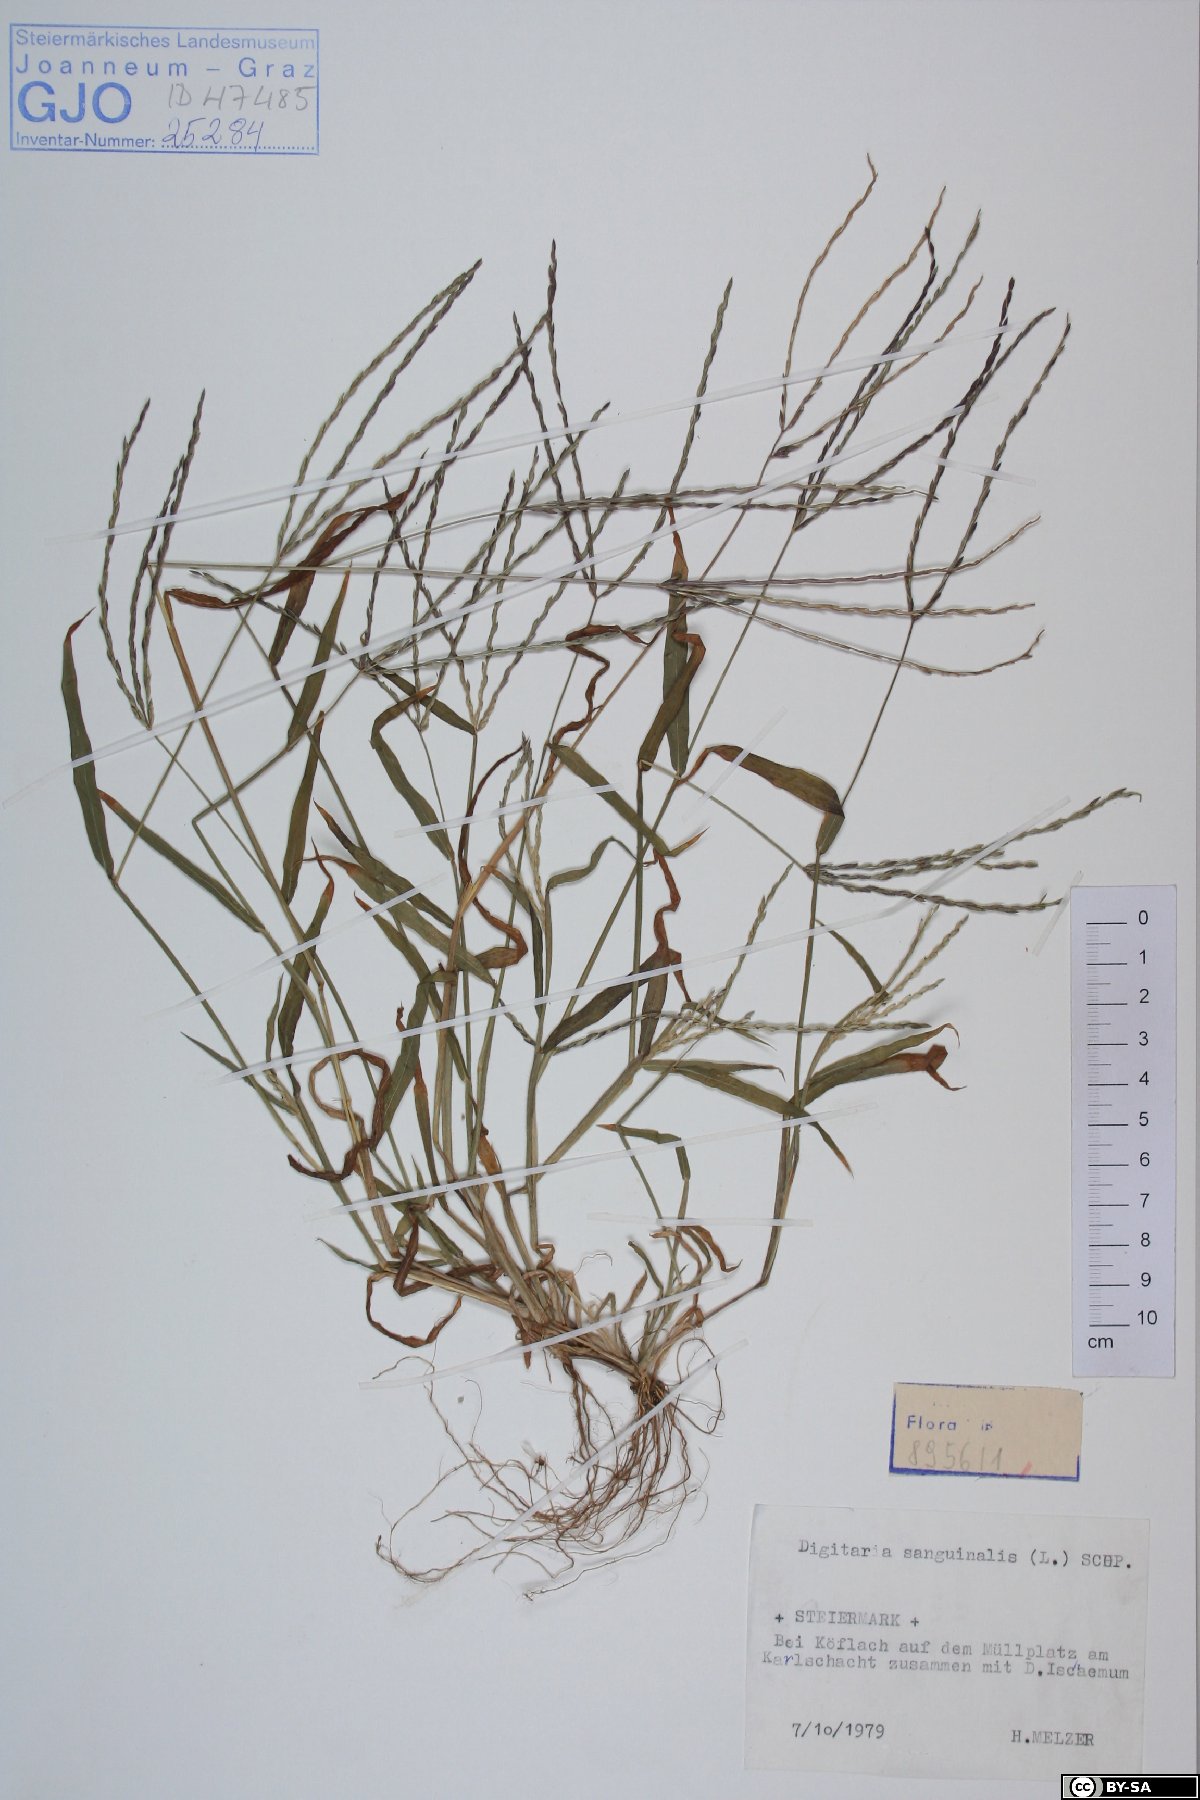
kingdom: Plantae
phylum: Tracheophyta
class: Liliopsida
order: Poales
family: Poaceae
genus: Digitaria
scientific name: Digitaria sanguinalis
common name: Hairy crabgrass
